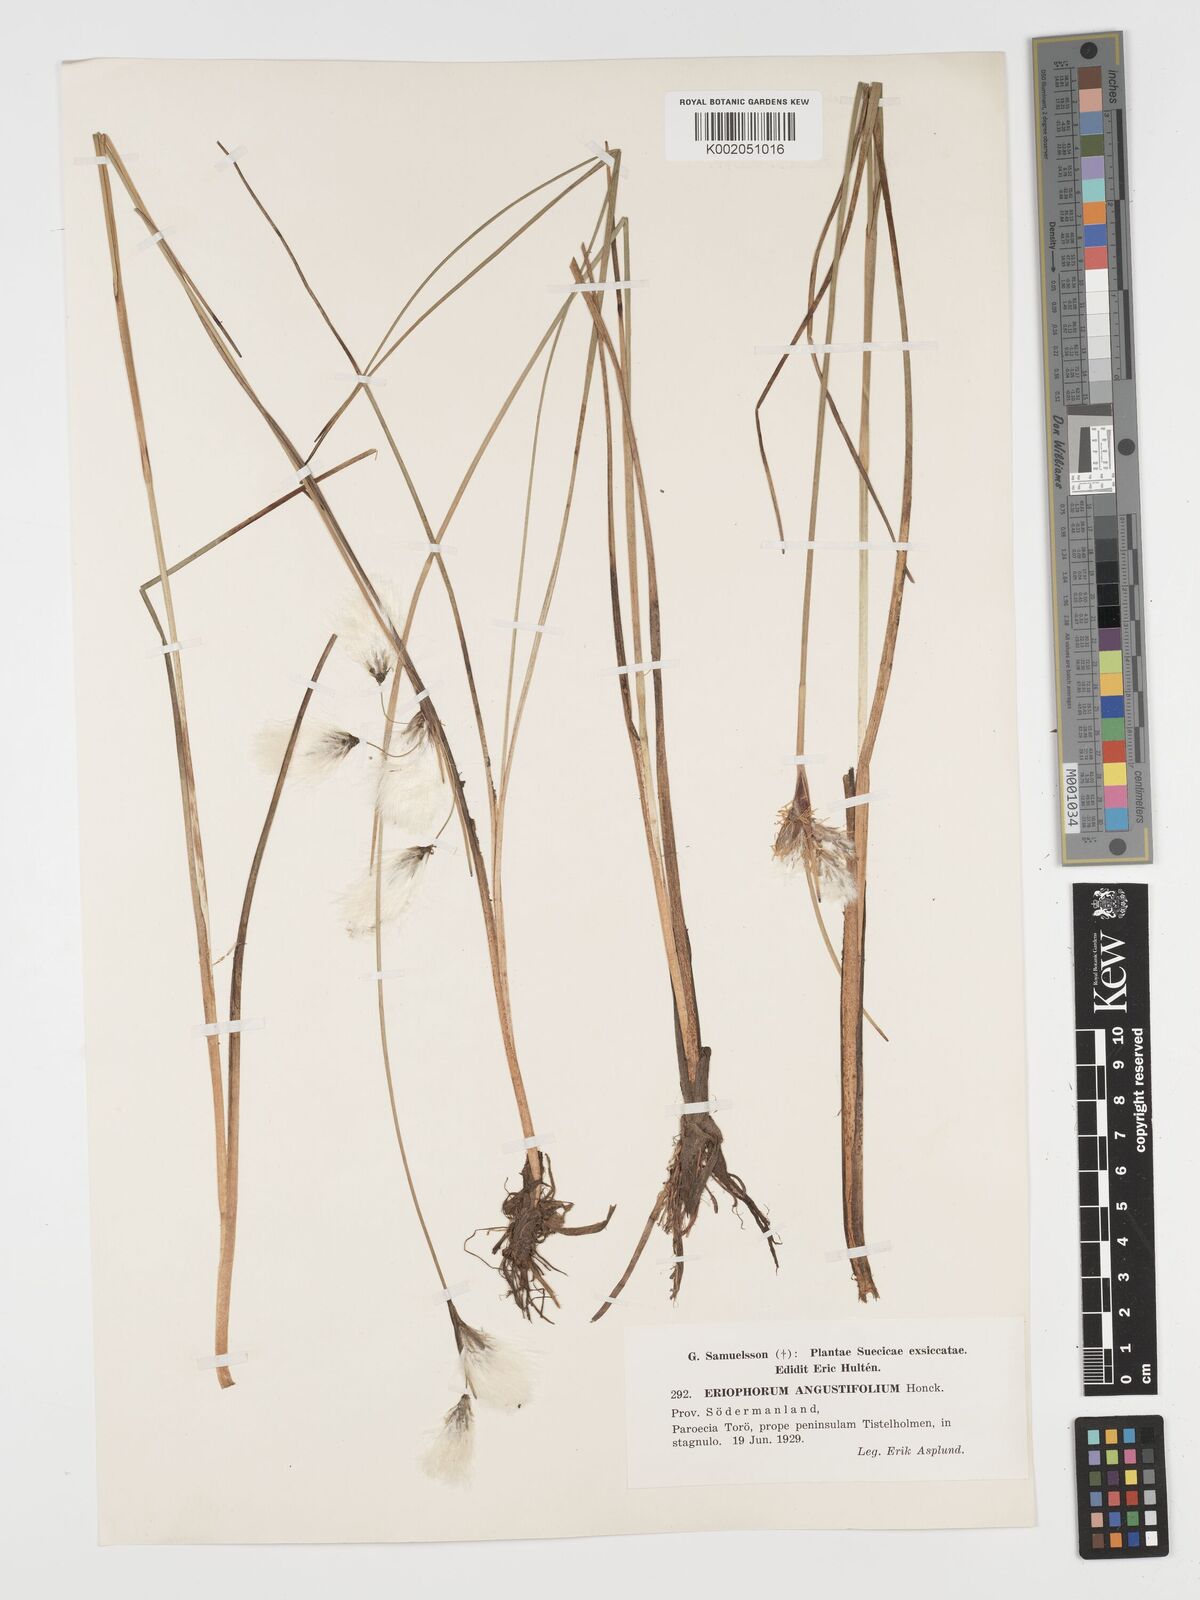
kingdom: Plantae
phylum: Tracheophyta
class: Liliopsida
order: Poales
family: Cyperaceae
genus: Eriophorum
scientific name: Eriophorum angustifolium
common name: Common cottongrass
